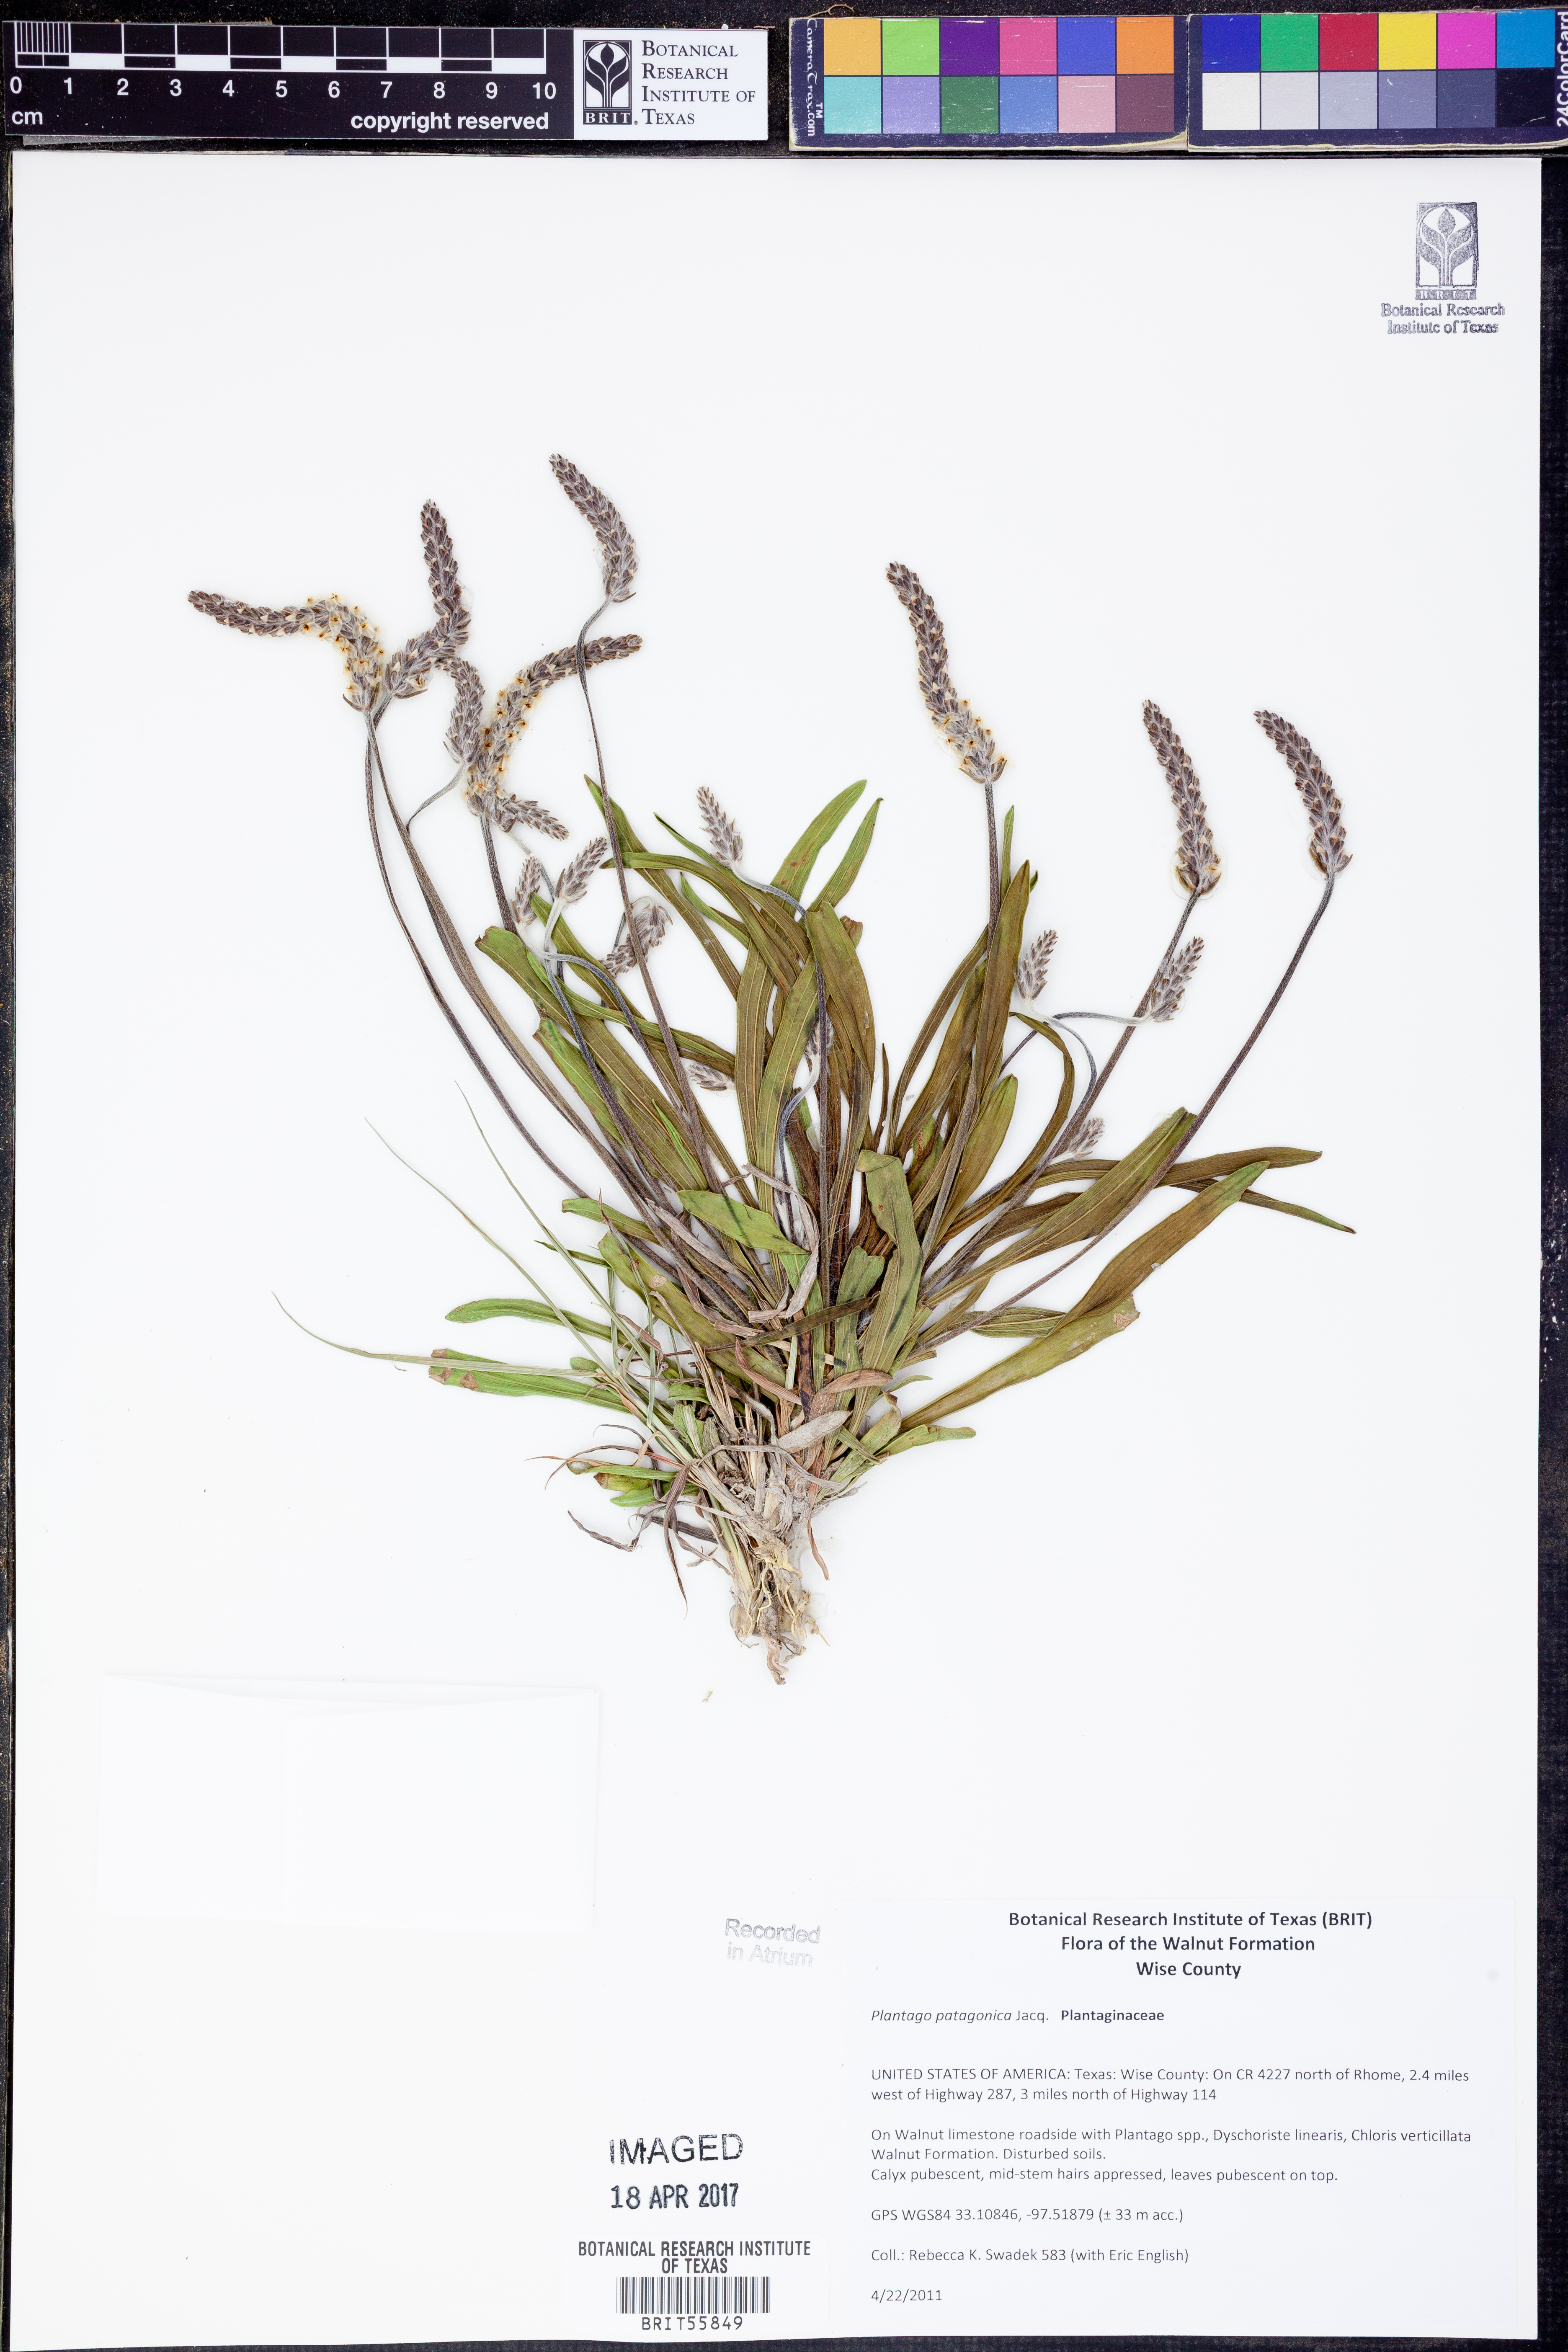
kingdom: Plantae
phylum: Tracheophyta
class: Magnoliopsida
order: Lamiales
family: Plantaginaceae
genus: Plantago
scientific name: Plantago patagonica
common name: Patagonia indian-wheat
